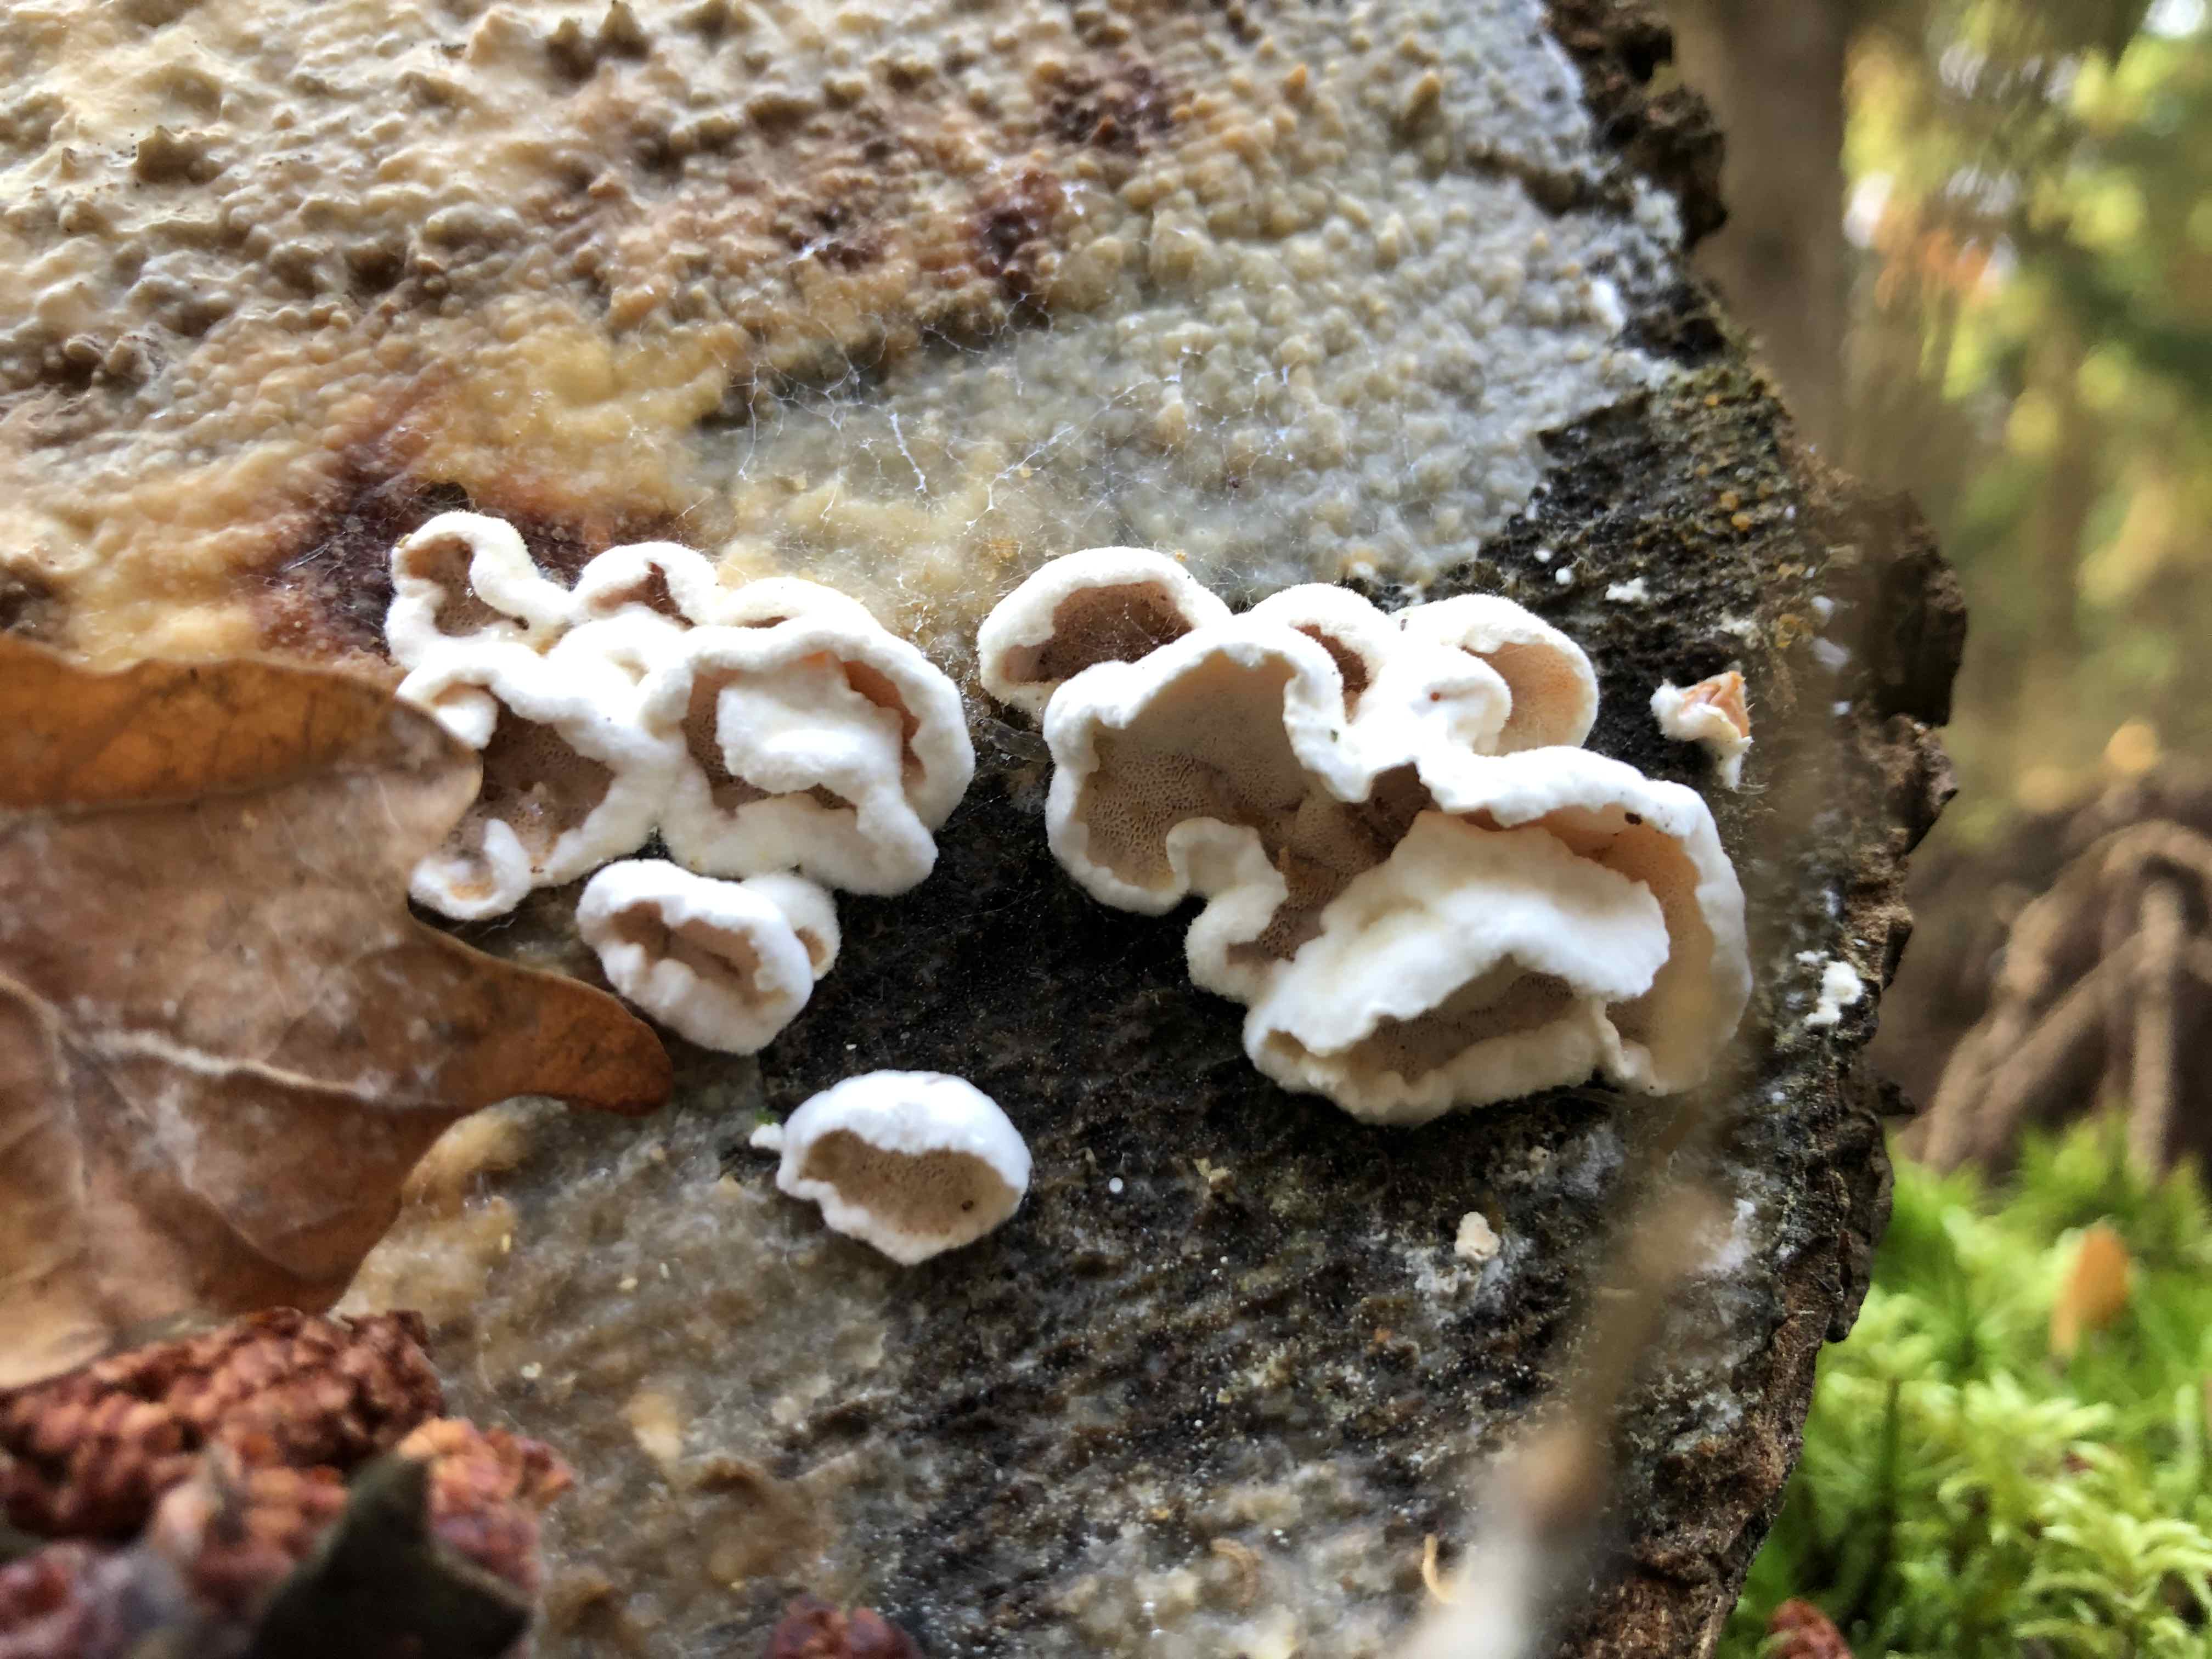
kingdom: Fungi
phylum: Basidiomycota
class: Agaricomycetes
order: Polyporales
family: Incrustoporiaceae
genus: Skeletocutis
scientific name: Skeletocutis amorpha
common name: orange krystalporesvamp
